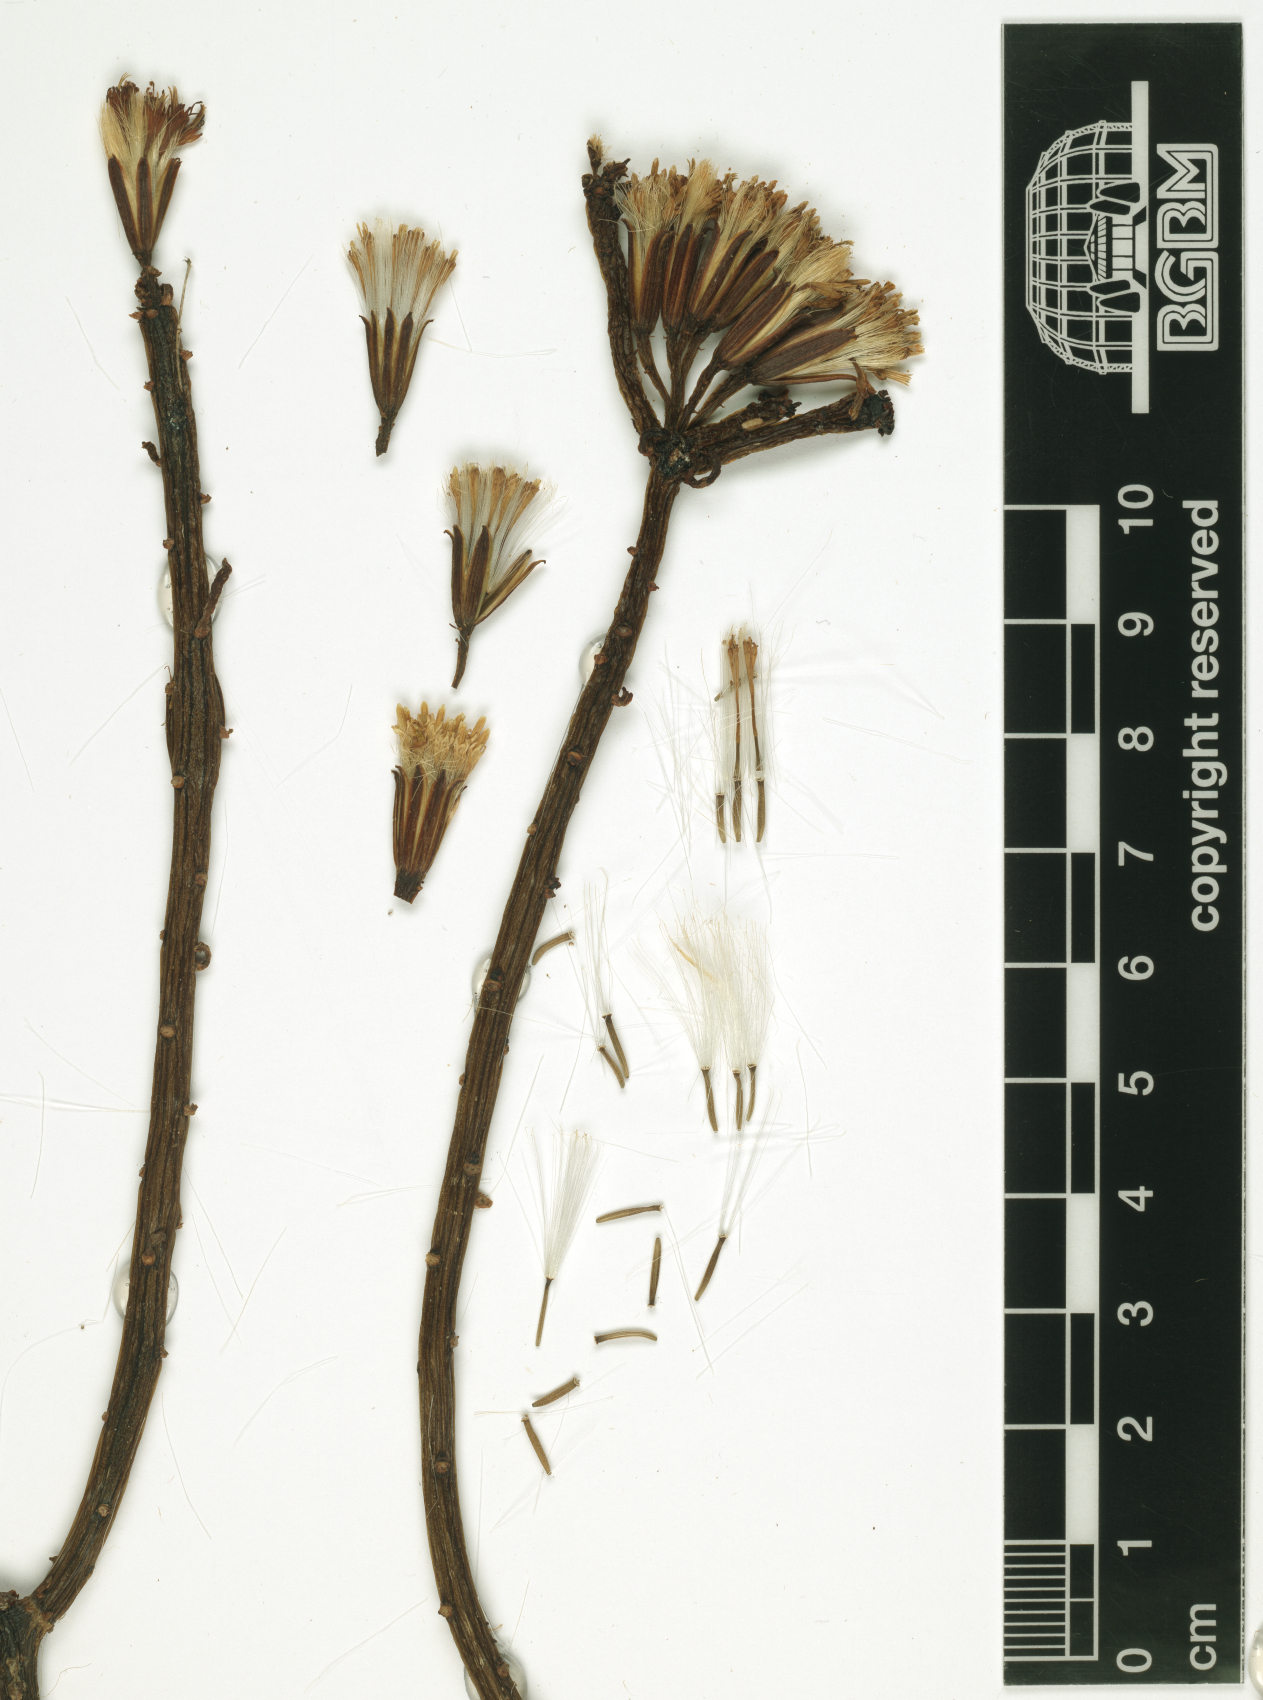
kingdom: Plantae
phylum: Tracheophyta
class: Magnoliopsida
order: Asterales
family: Asteraceae
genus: Kleinia
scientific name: Kleinia scottii
